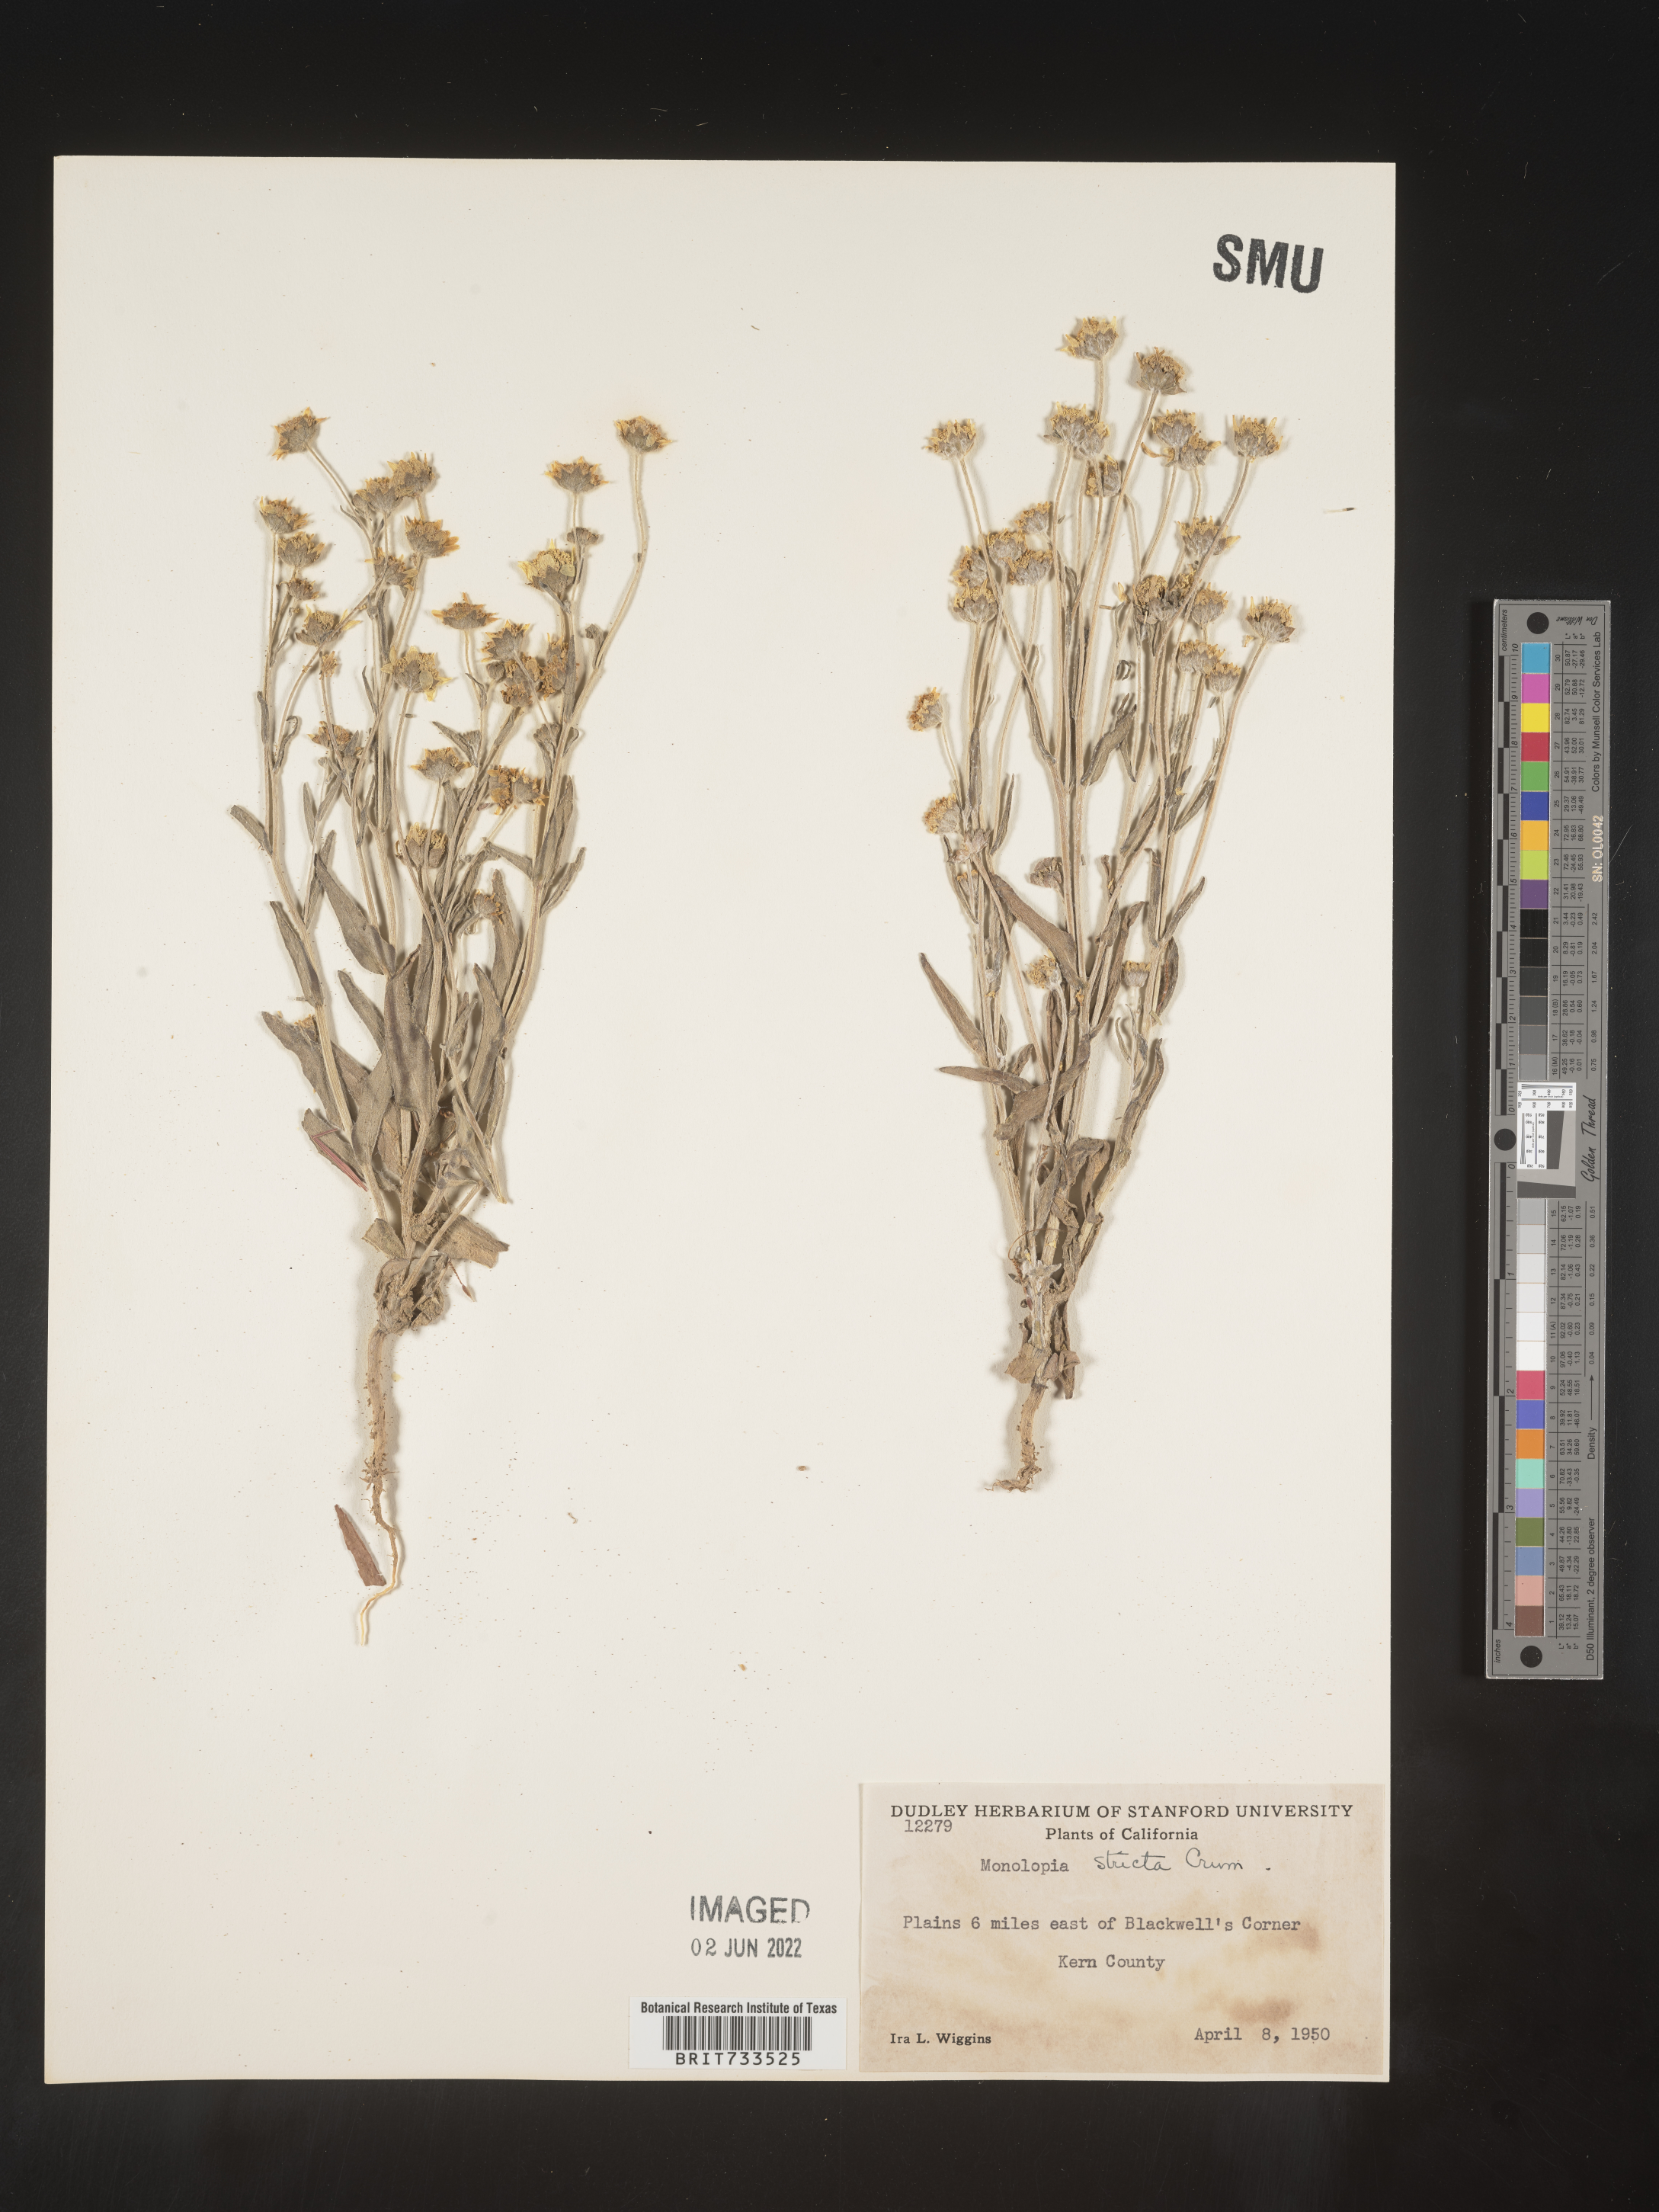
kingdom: Plantae
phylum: Tracheophyta
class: Magnoliopsida
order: Asterales
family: Asteraceae
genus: Monolopia
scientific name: Monolopia stricta
